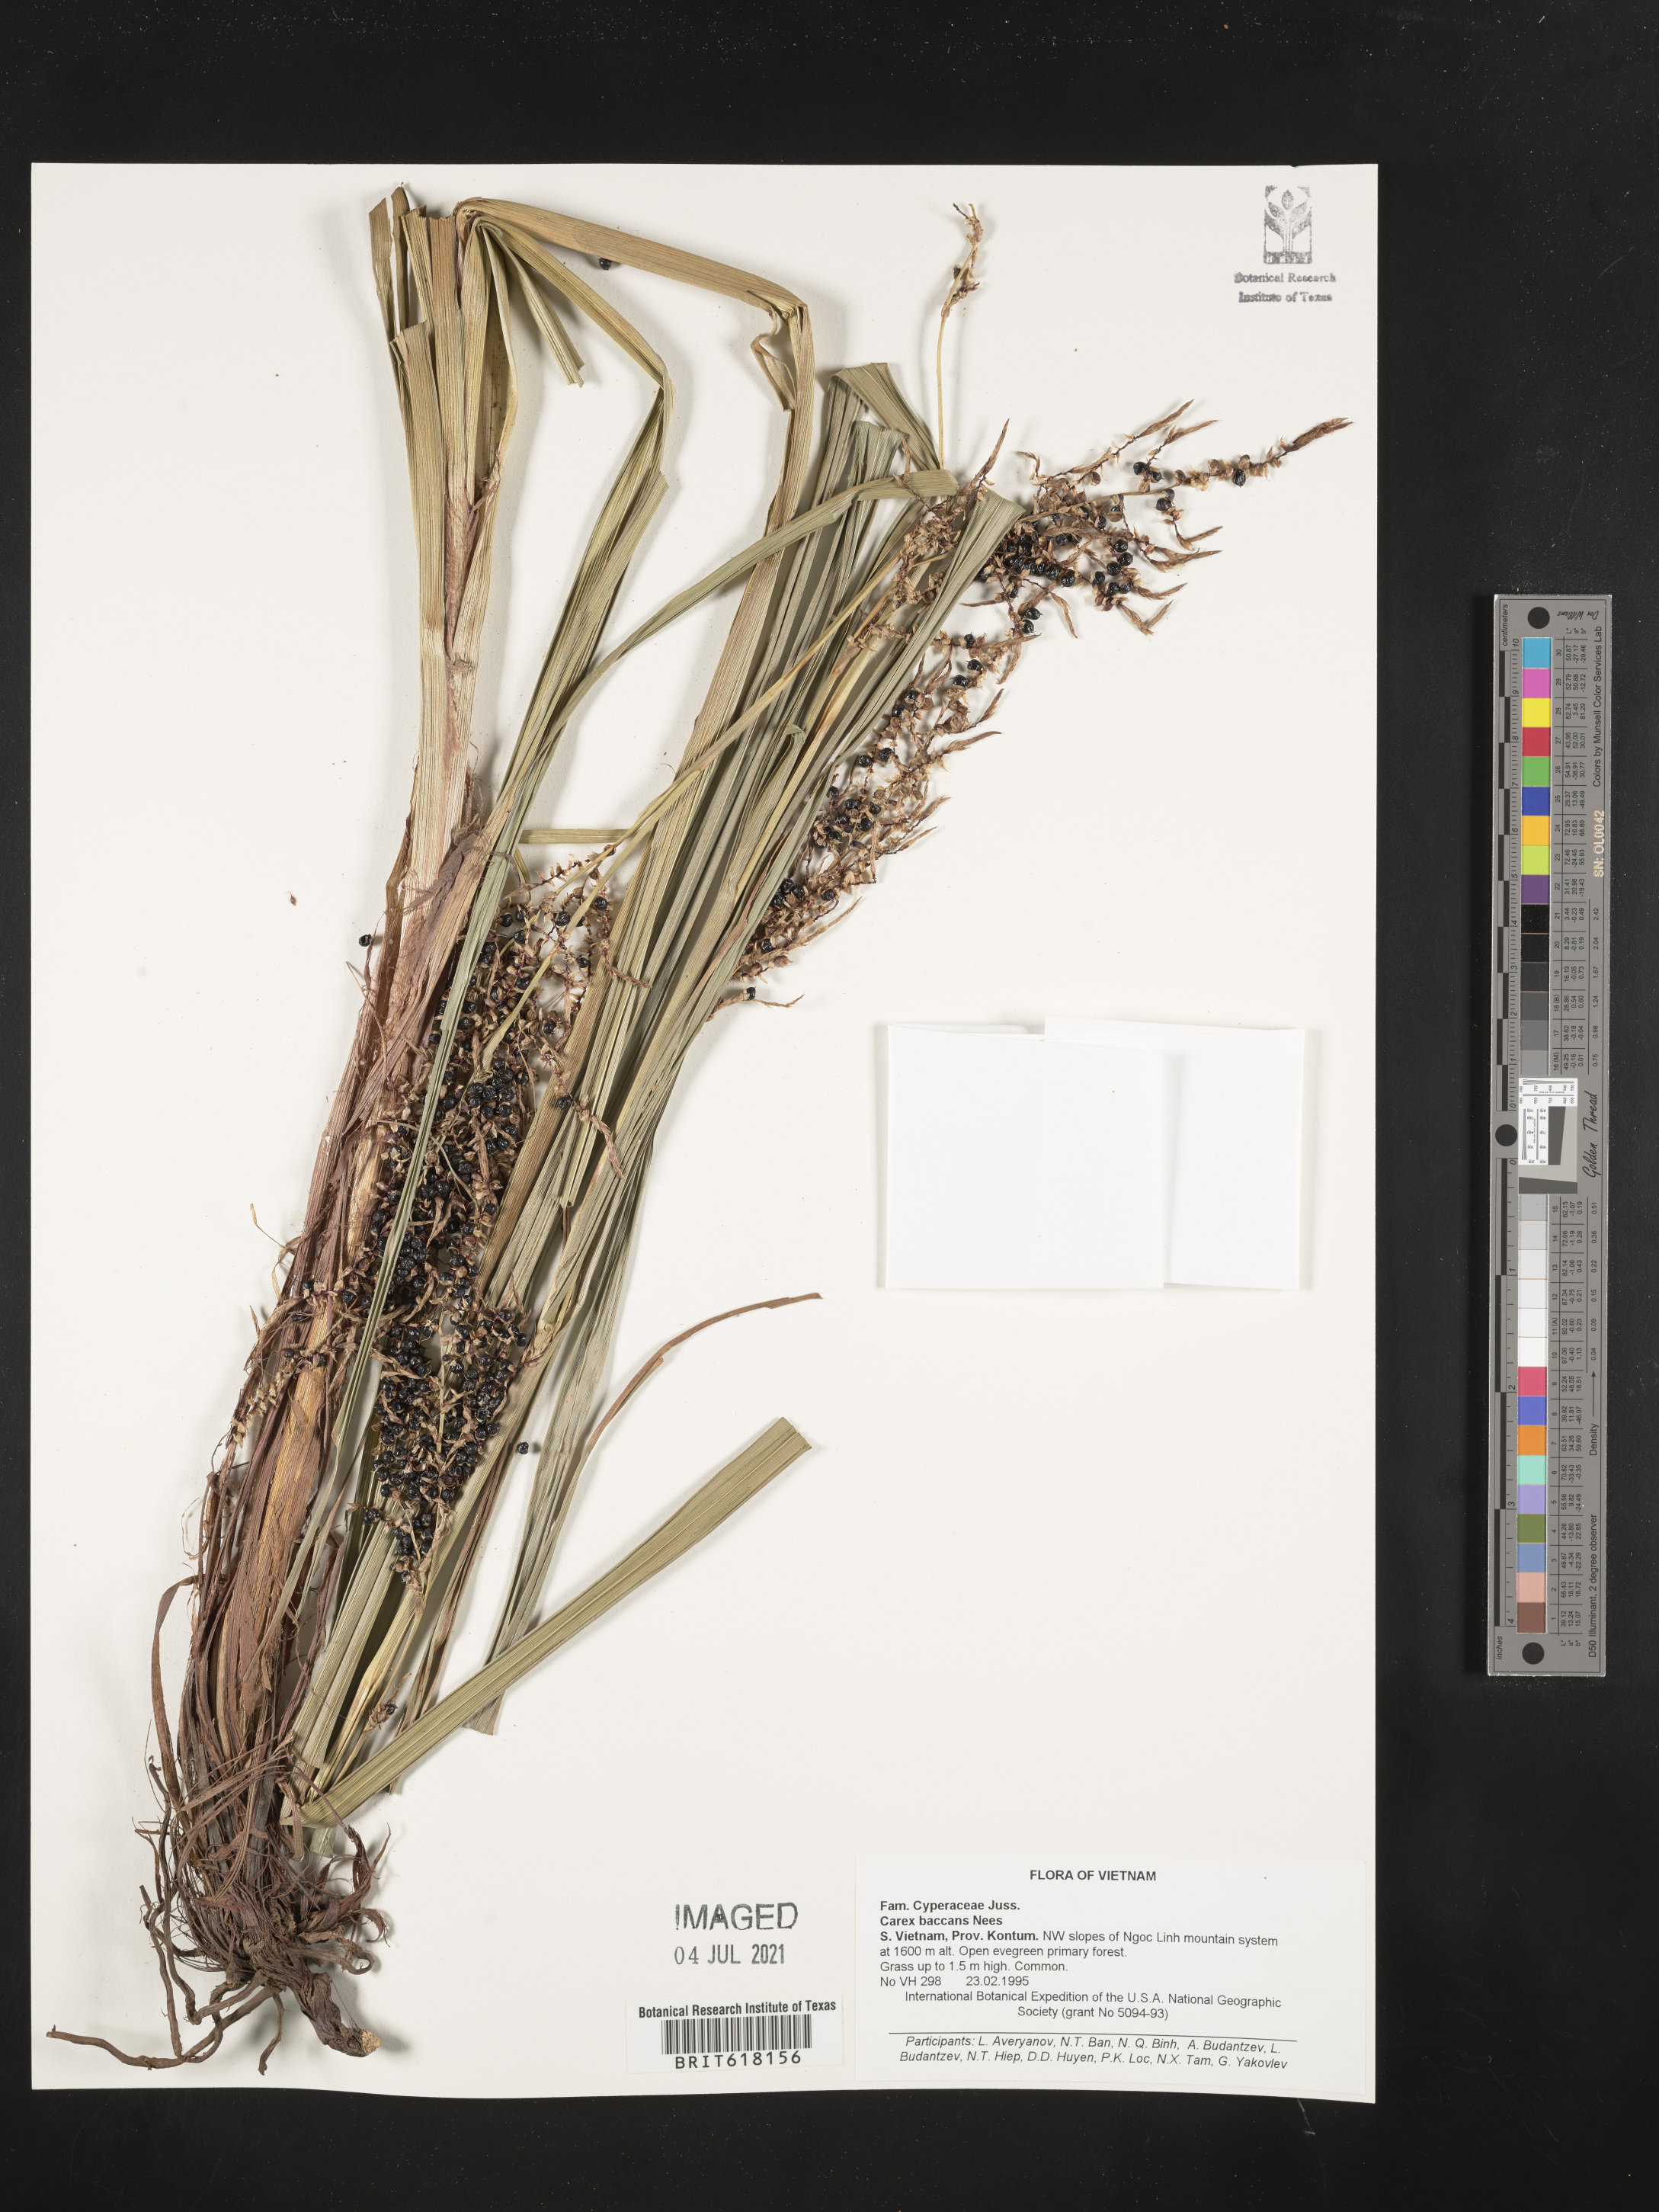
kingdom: Plantae
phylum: Tracheophyta
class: Liliopsida
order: Poales
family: Cyperaceae
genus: Carex
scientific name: Carex baccans
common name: Crimson seeded sedge
